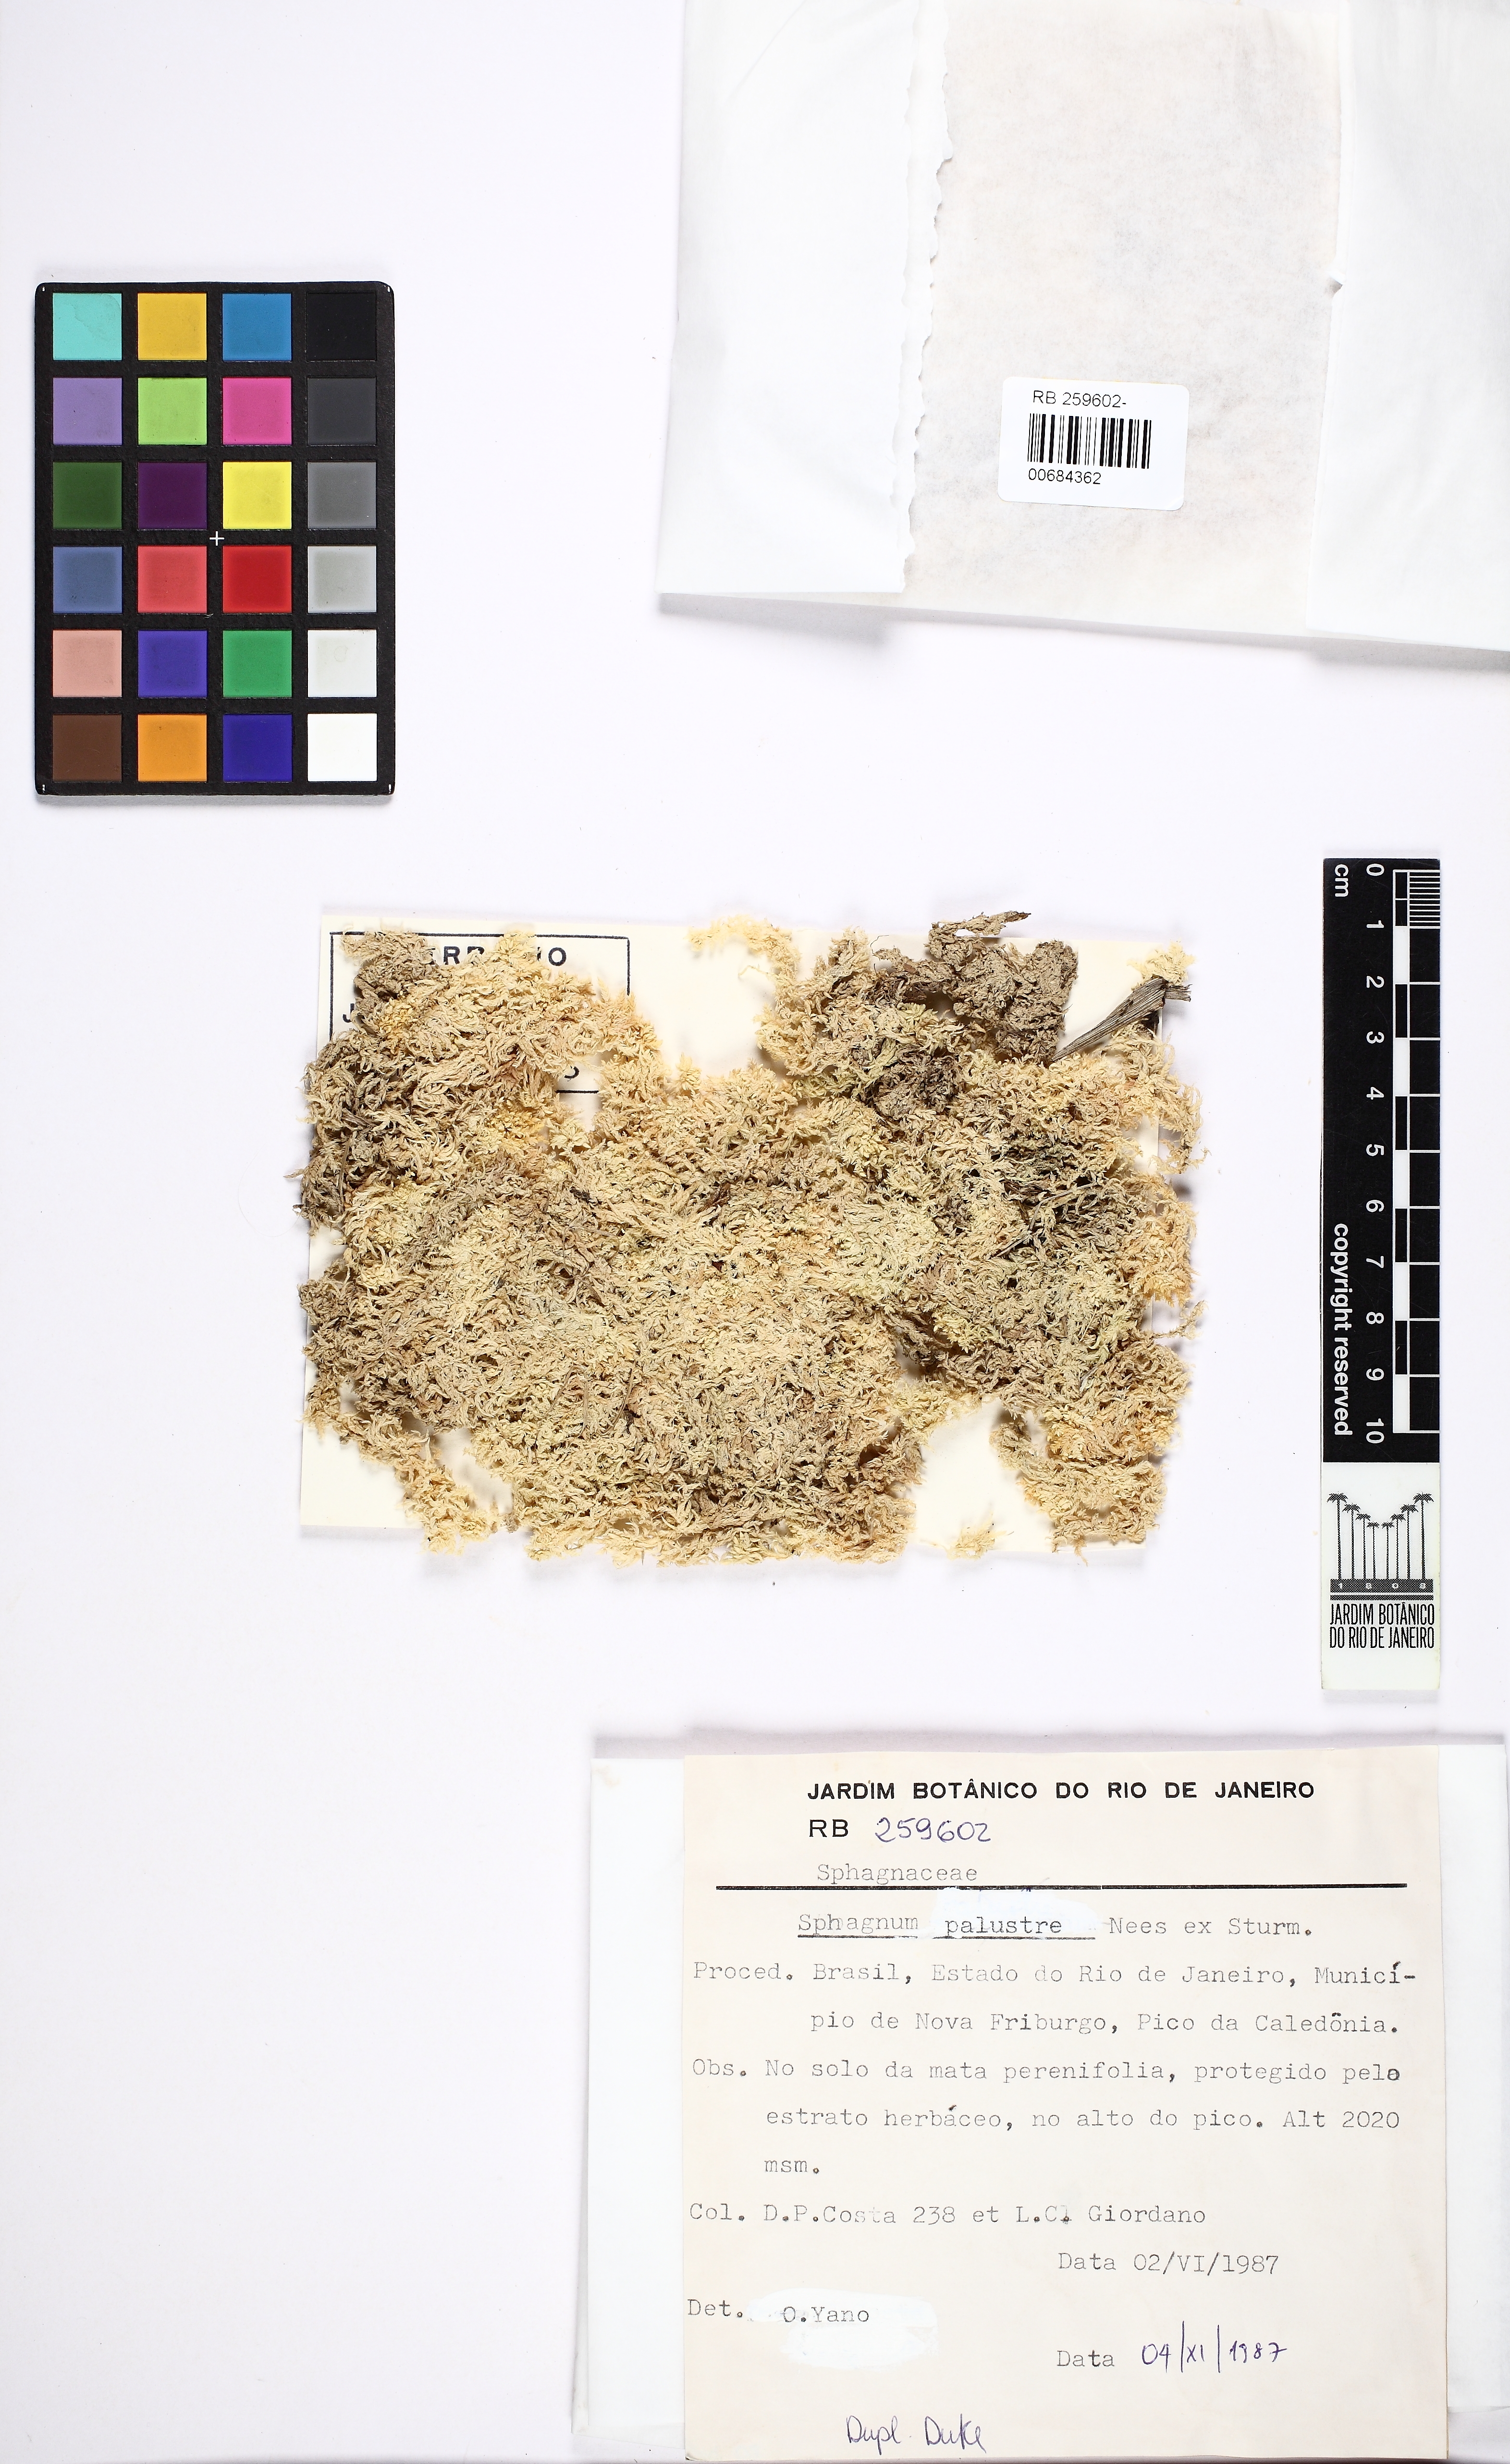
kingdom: Plantae
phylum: Bryophyta
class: Sphagnopsida
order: Sphagnales
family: Sphagnaceae
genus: Sphagnum
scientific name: Sphagnum palustre
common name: Blunt-leaved bog-moss
